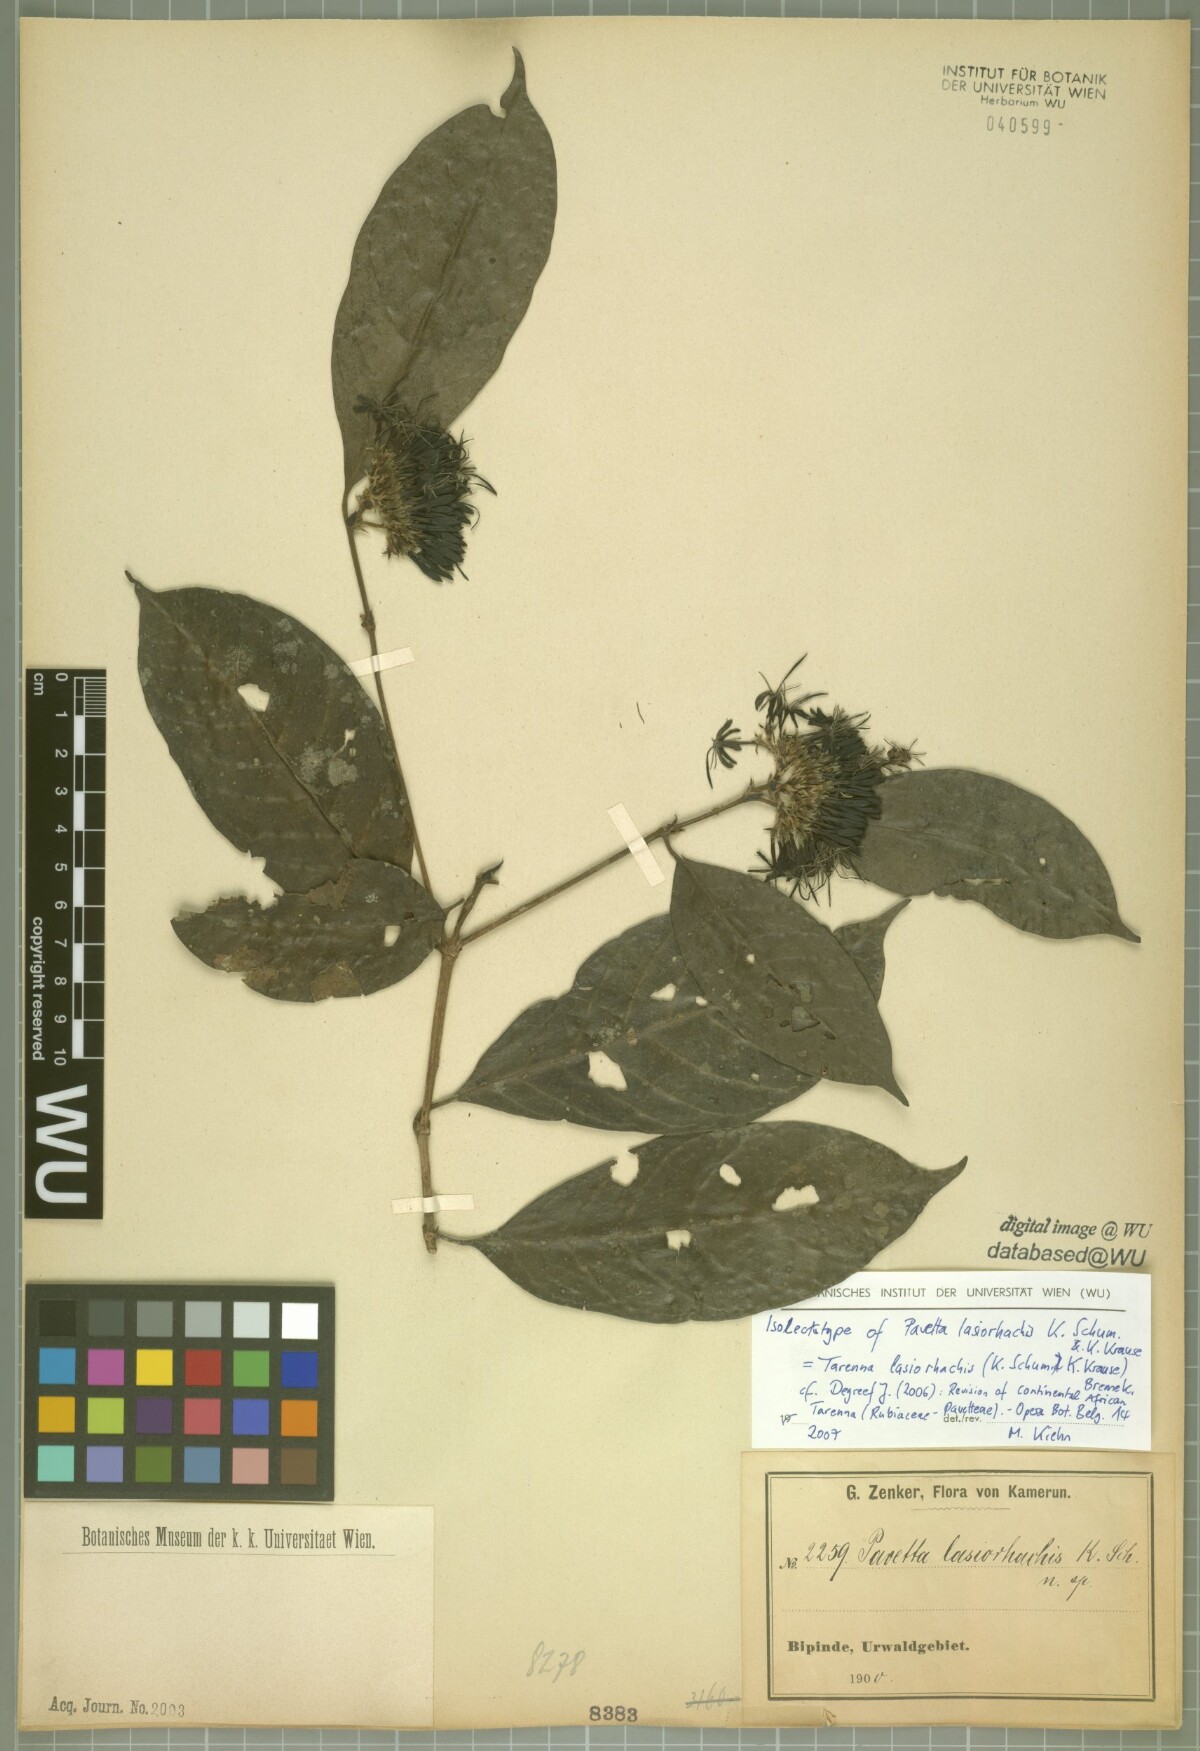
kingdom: Plantae
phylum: Tracheophyta
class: Magnoliopsida
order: Gentianales
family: Rubiaceae
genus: Tarenna
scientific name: Tarenna lasiorhachis
